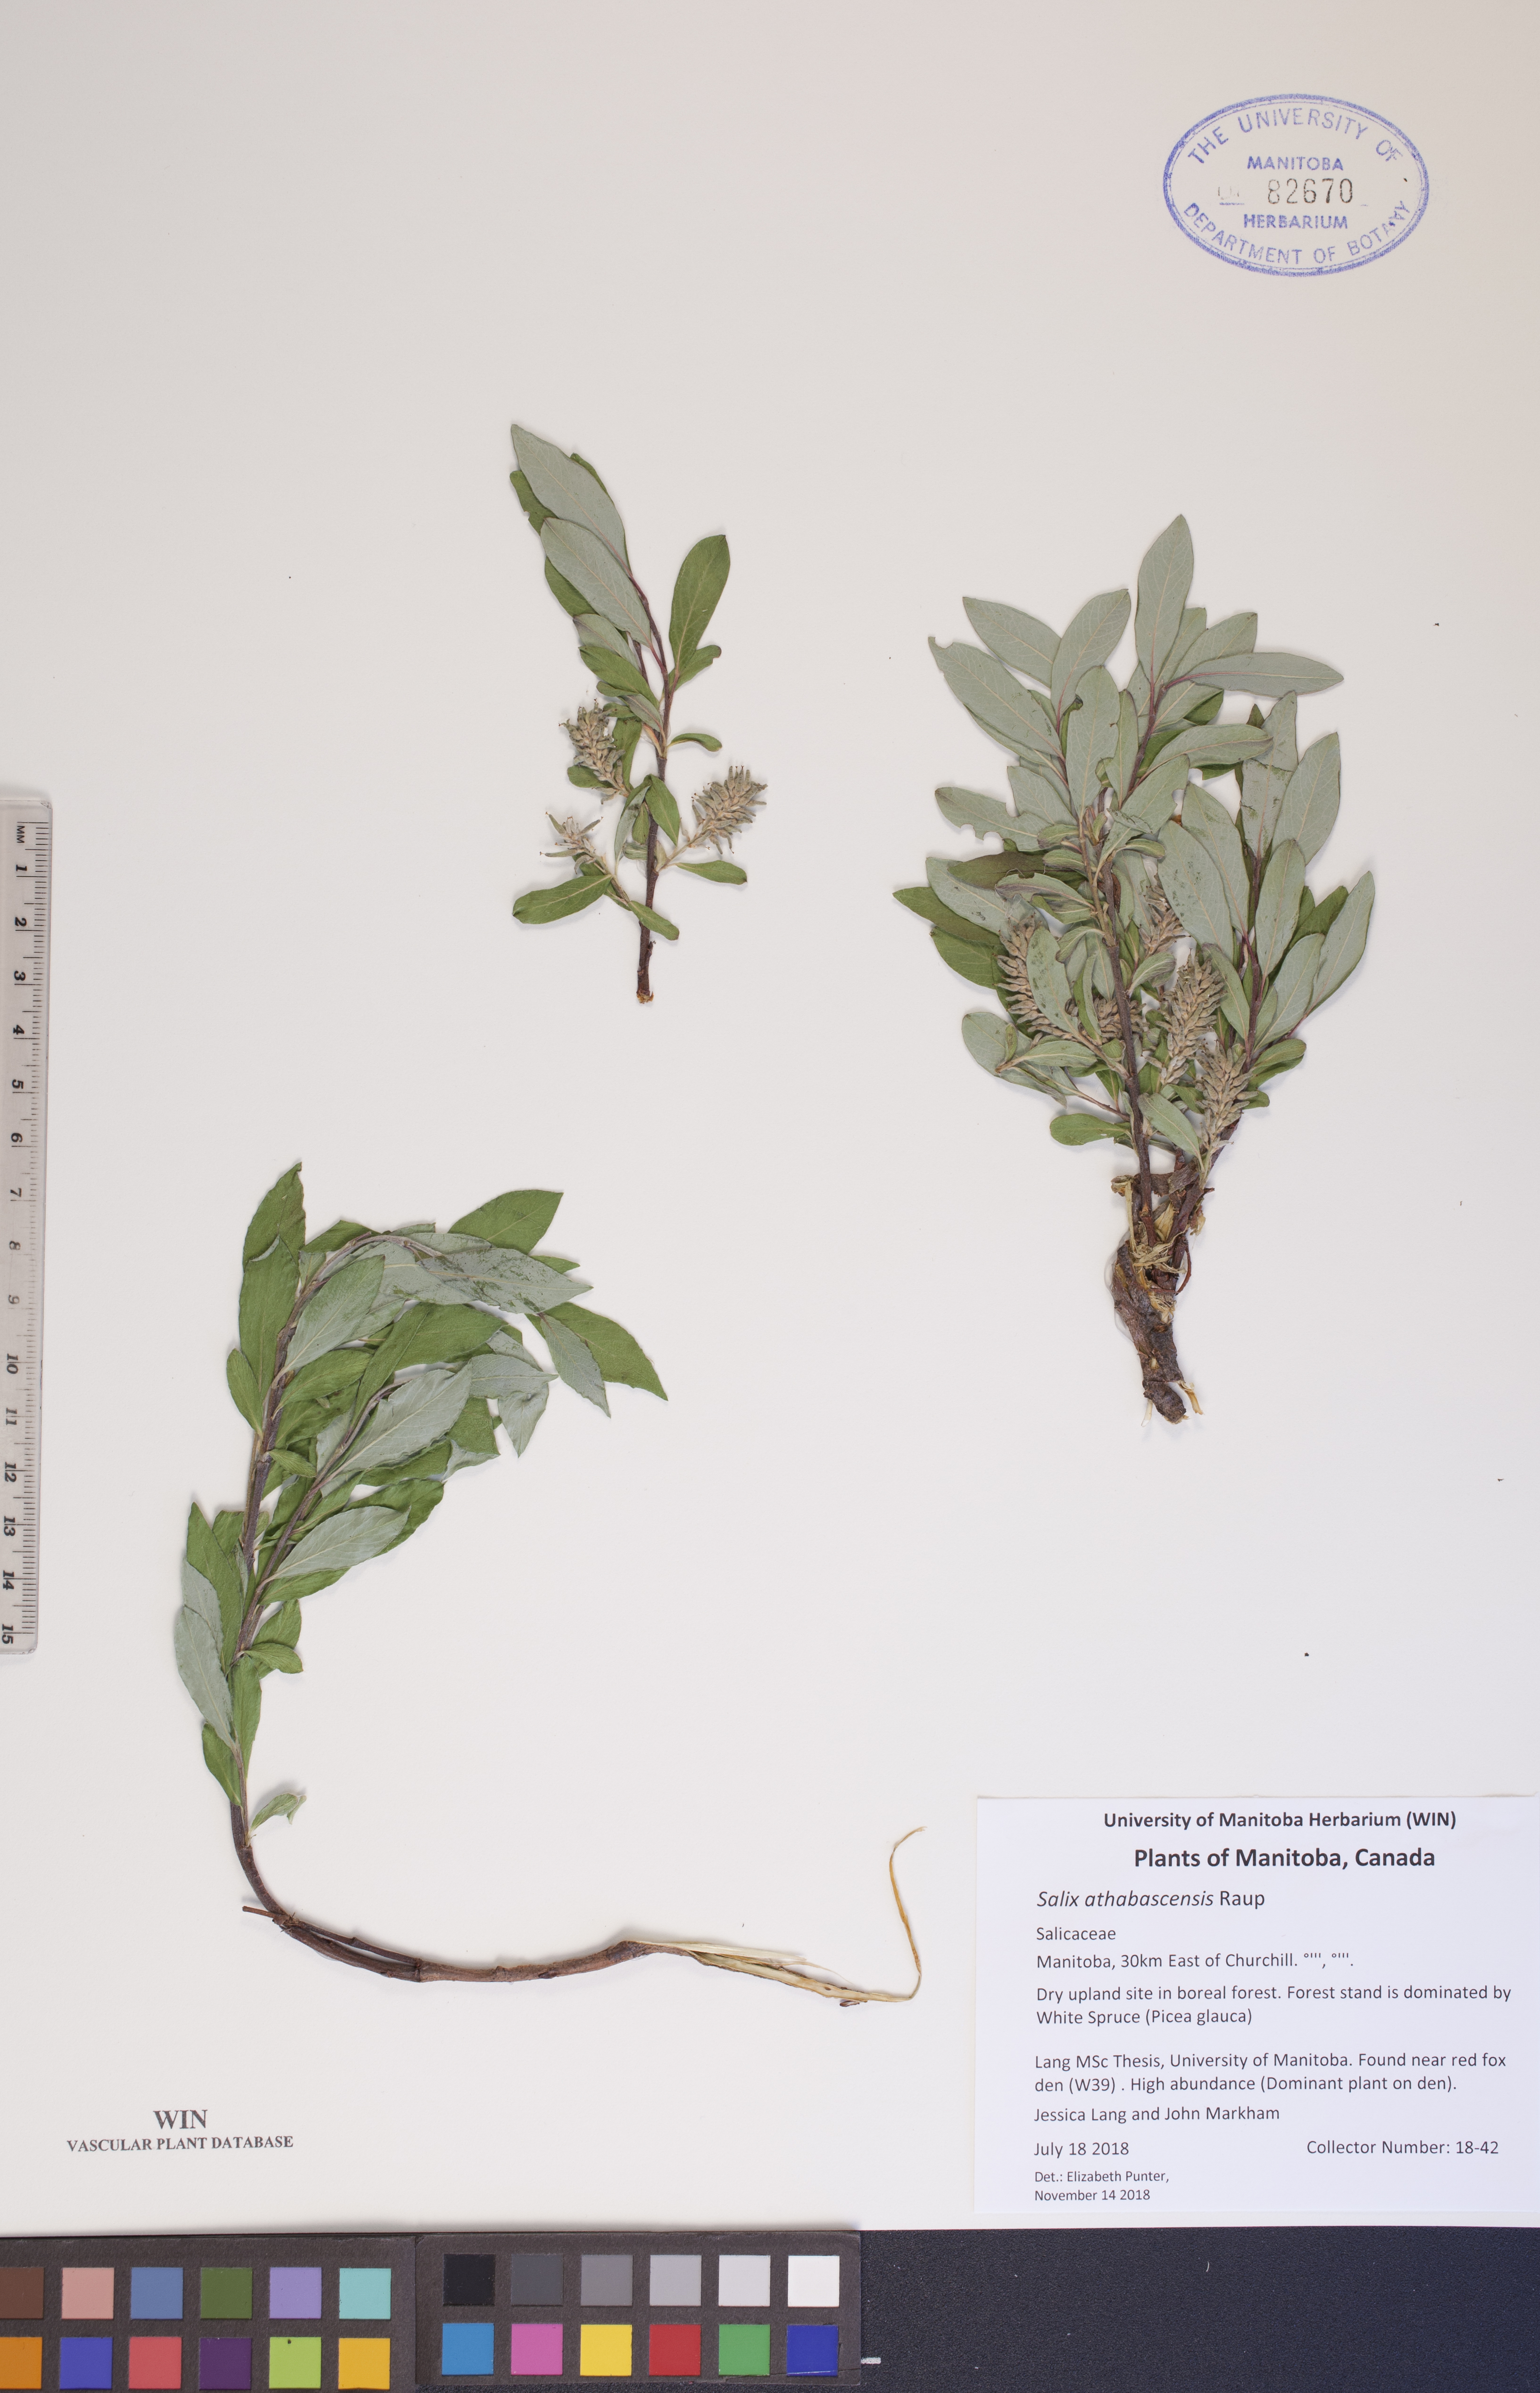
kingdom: Plantae
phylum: Tracheophyta
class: Magnoliopsida
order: Malpighiales
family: Salicaceae
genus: Salix
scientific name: Salix athabascensis
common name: Athabasca willow
